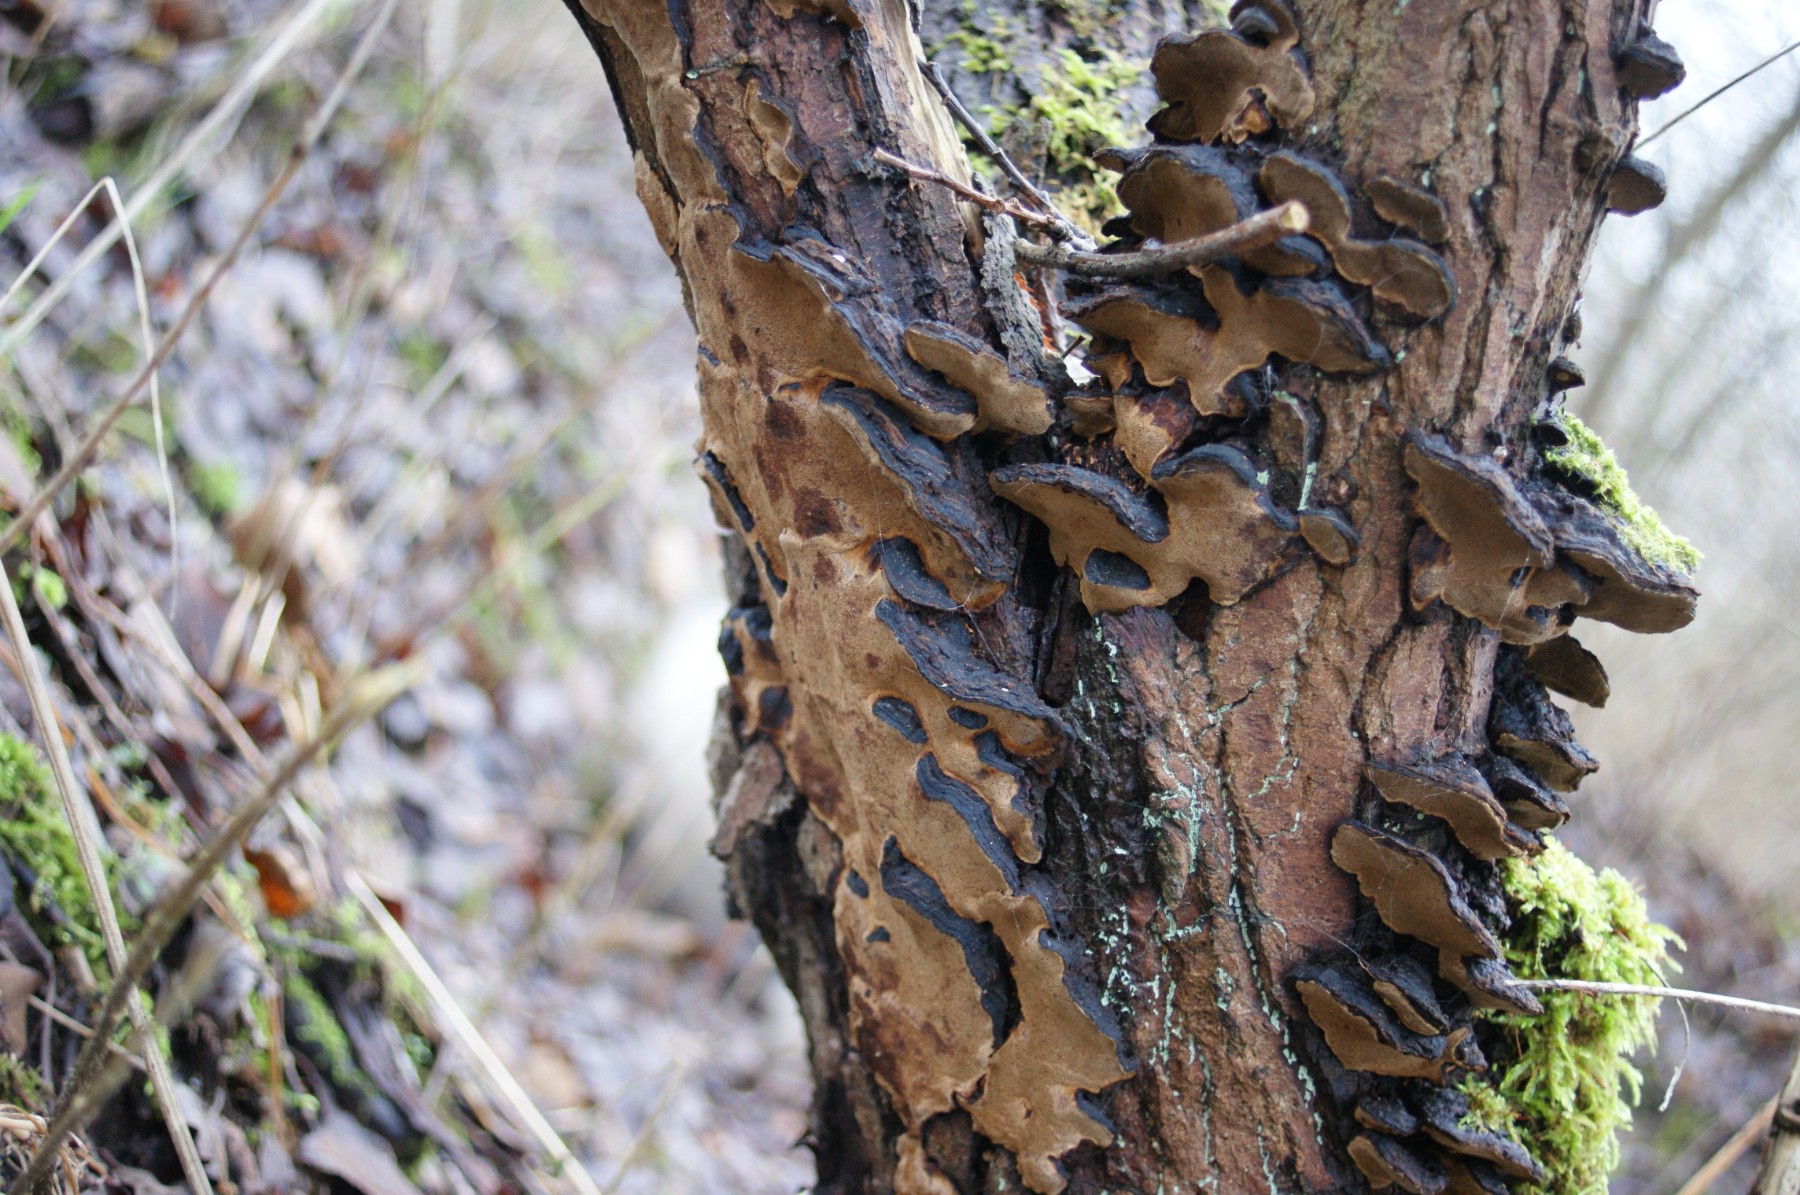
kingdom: Fungi
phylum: Basidiomycota
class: Agaricomycetes
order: Hymenochaetales
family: Hymenochaetaceae
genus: Phellinopsis
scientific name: Phellinopsis conchata
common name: pile-ildporesvamp
